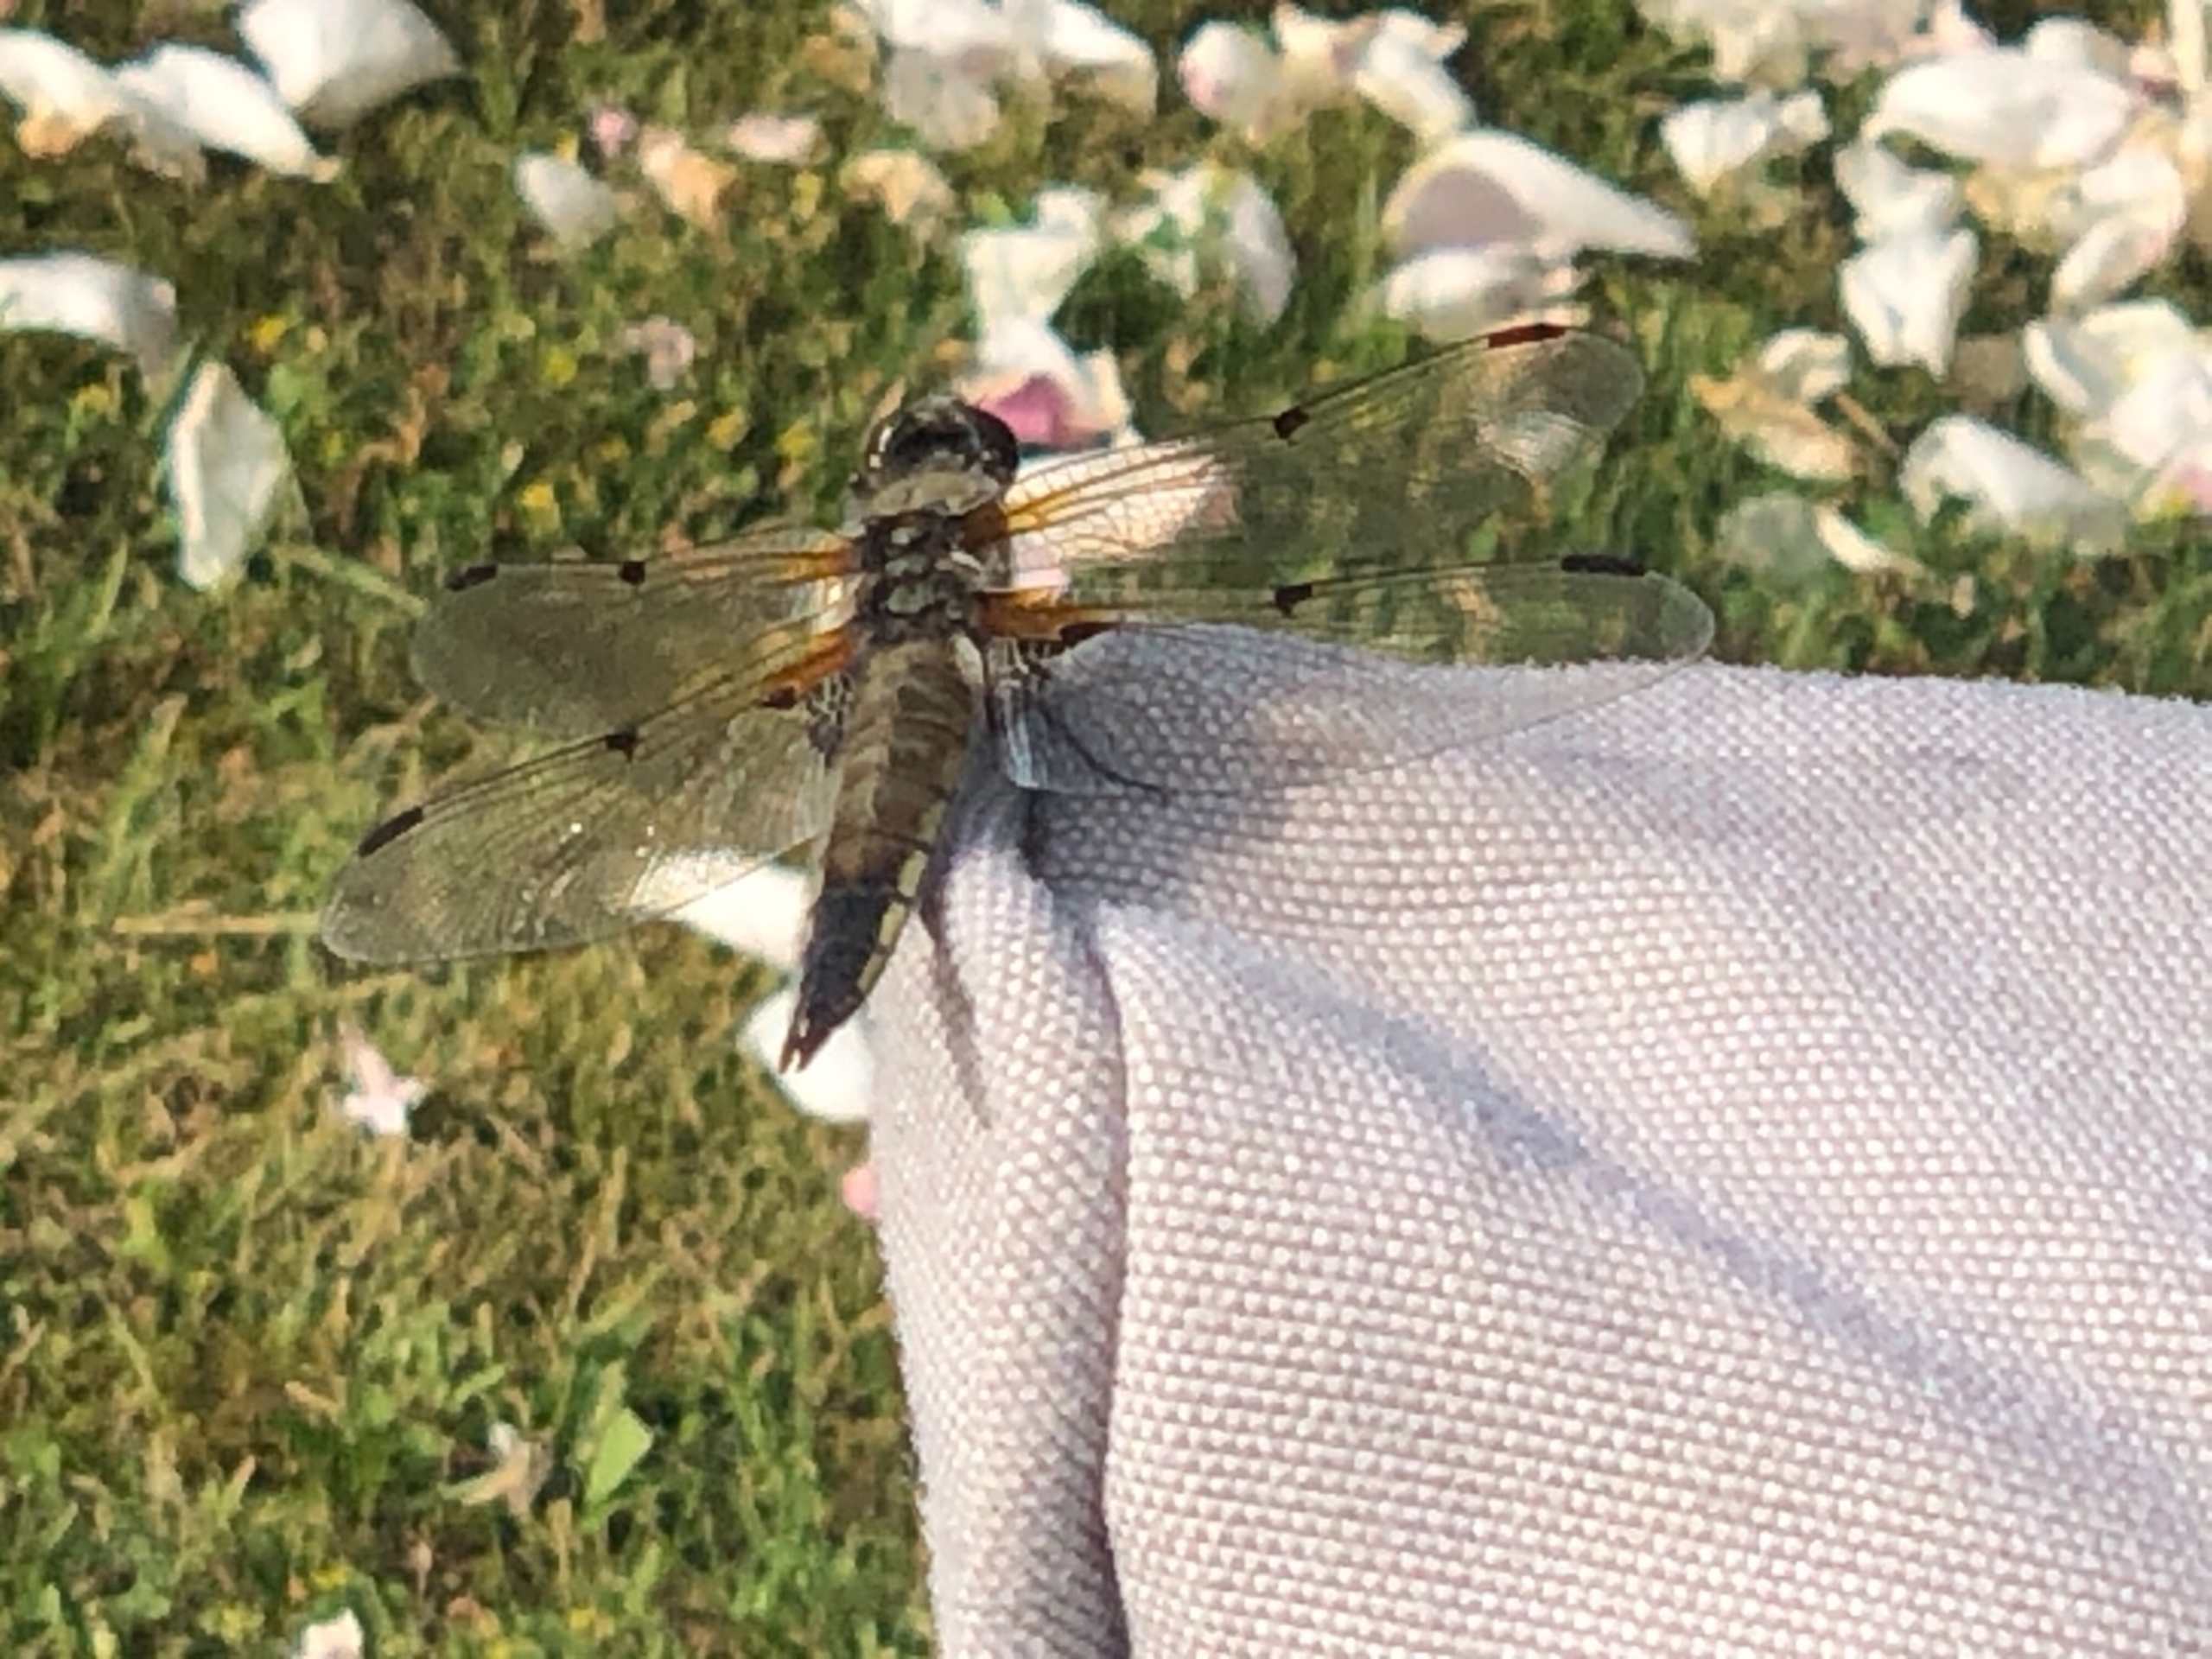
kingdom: Animalia
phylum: Arthropoda
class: Insecta
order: Odonata
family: Libellulidae
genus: Libellula
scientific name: Libellula quadrimaculata
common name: Fireplettet libel
